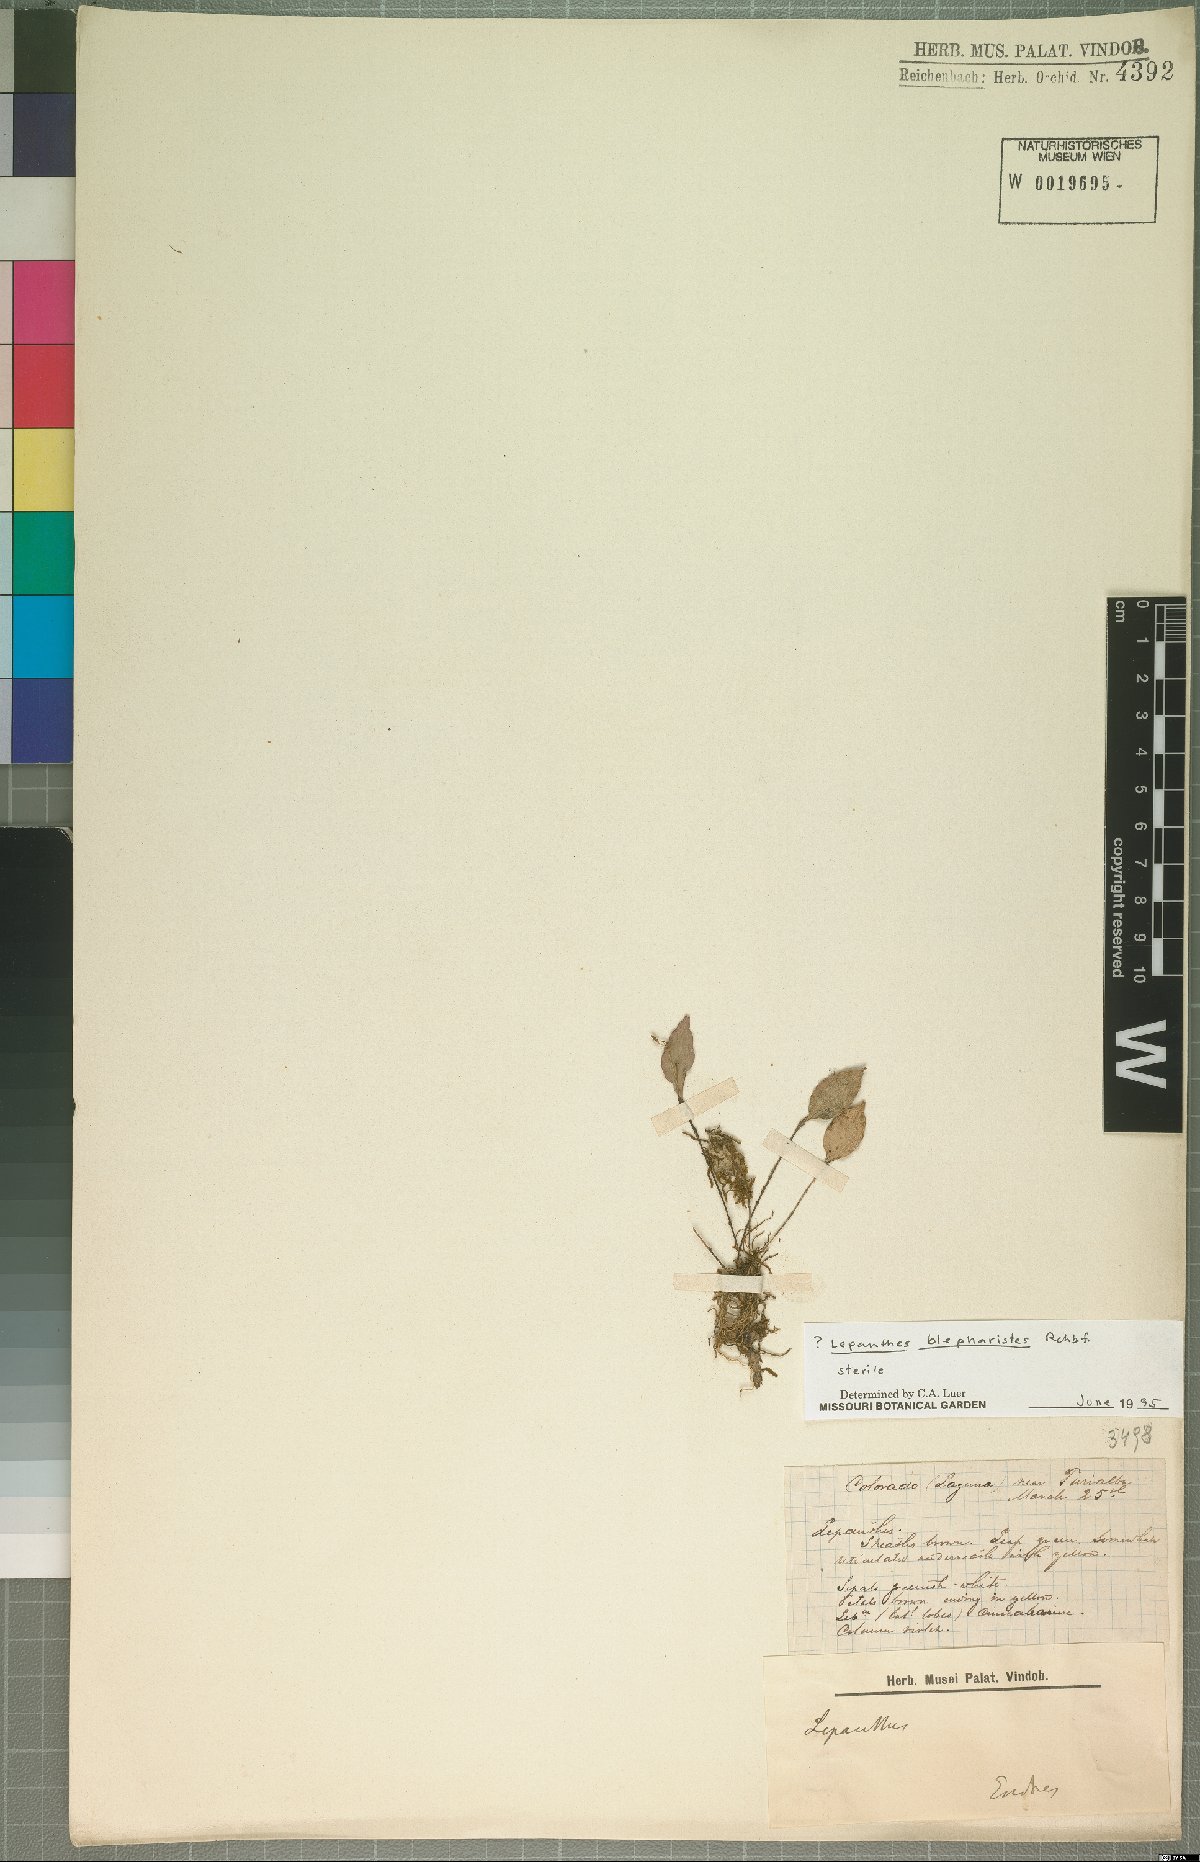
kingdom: Plantae
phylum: Tracheophyta
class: Liliopsida
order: Asparagales
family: Orchidaceae
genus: Lepanthes
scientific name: Lepanthes blepharistes
